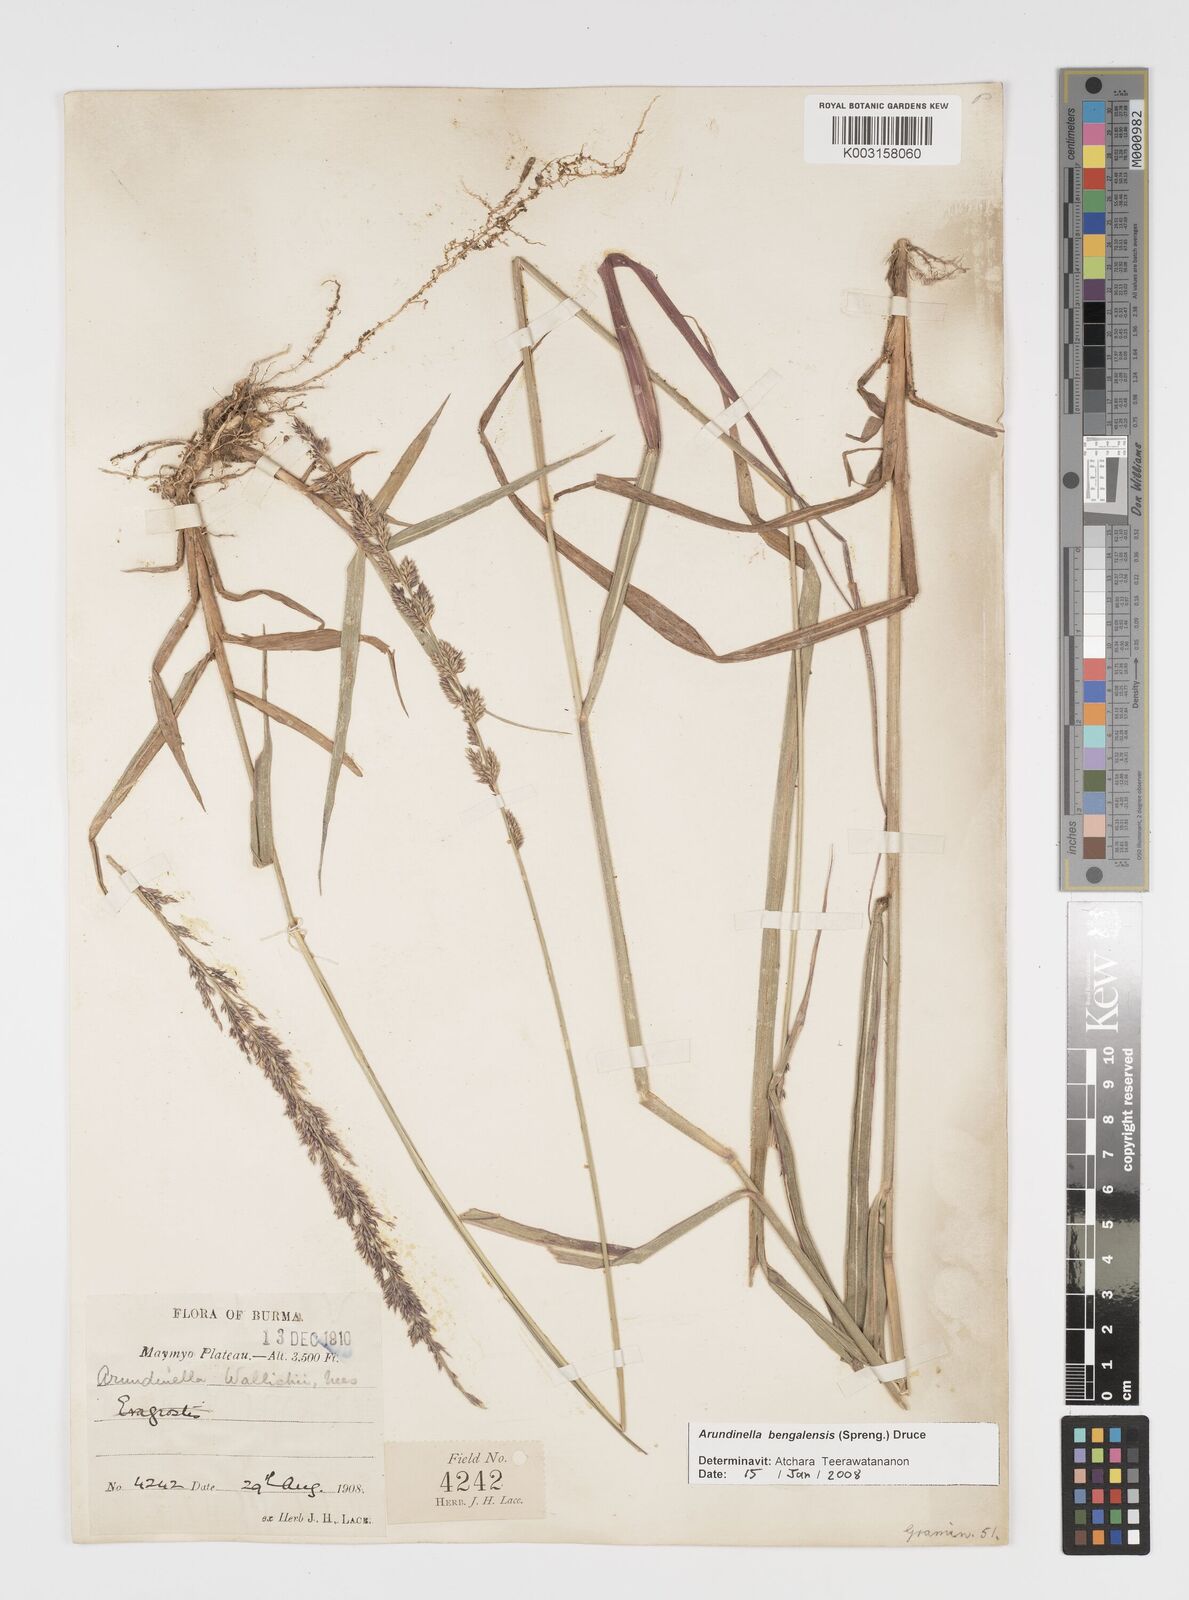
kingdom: Plantae
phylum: Tracheophyta
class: Liliopsida
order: Poales
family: Poaceae
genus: Arundinella
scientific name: Arundinella bengalensis
